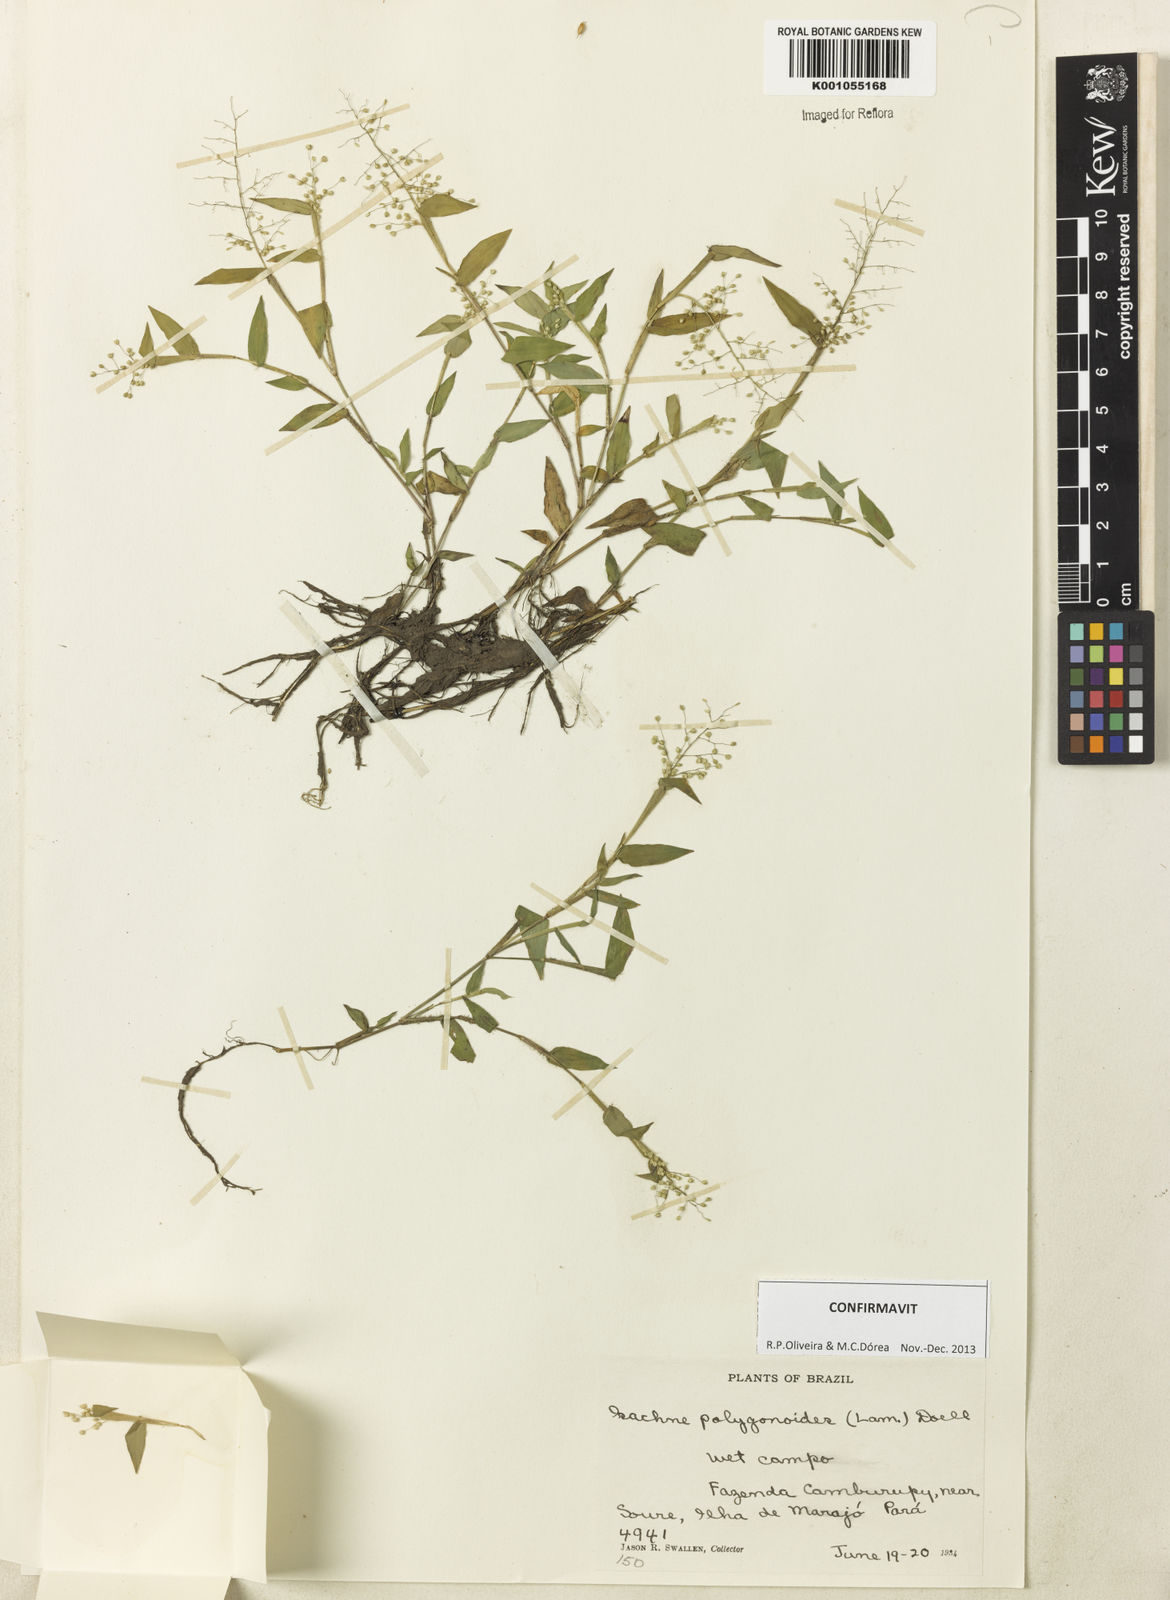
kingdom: Plantae
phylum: Tracheophyta
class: Liliopsida
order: Poales
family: Poaceae
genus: Isachne
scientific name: Isachne
